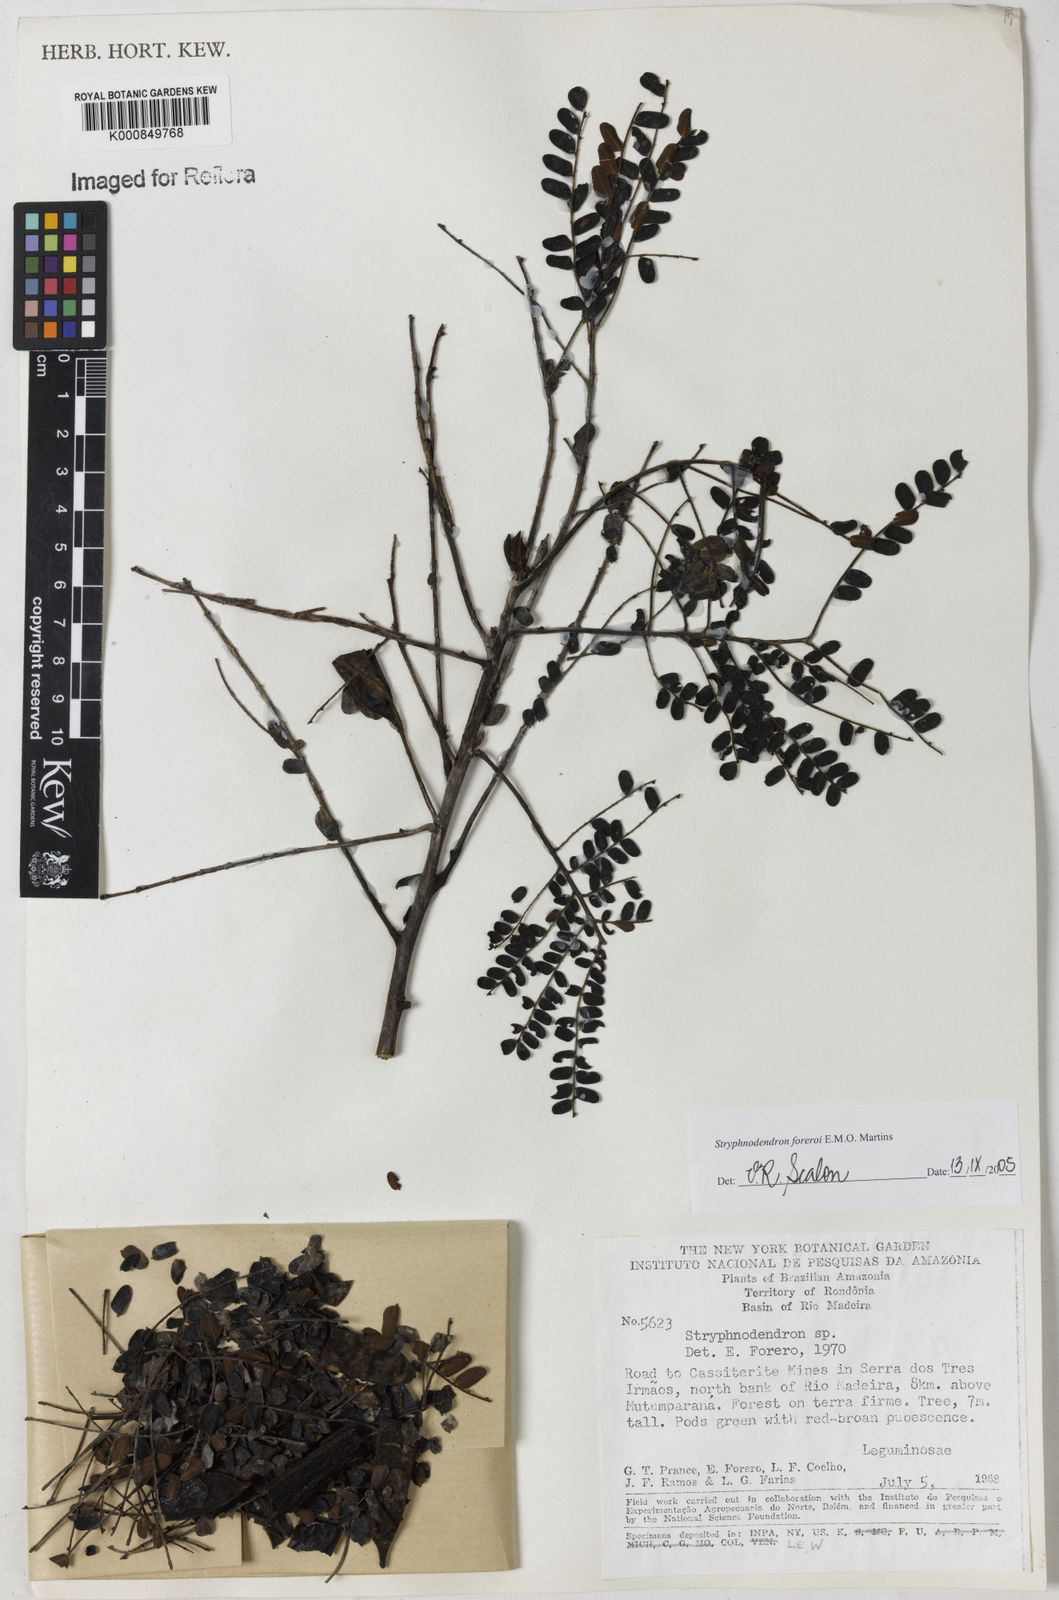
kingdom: Plantae
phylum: Tracheophyta
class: Magnoliopsida
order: Fabales
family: Fabaceae
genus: Stryphnodendron
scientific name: Stryphnodendron foreroi
